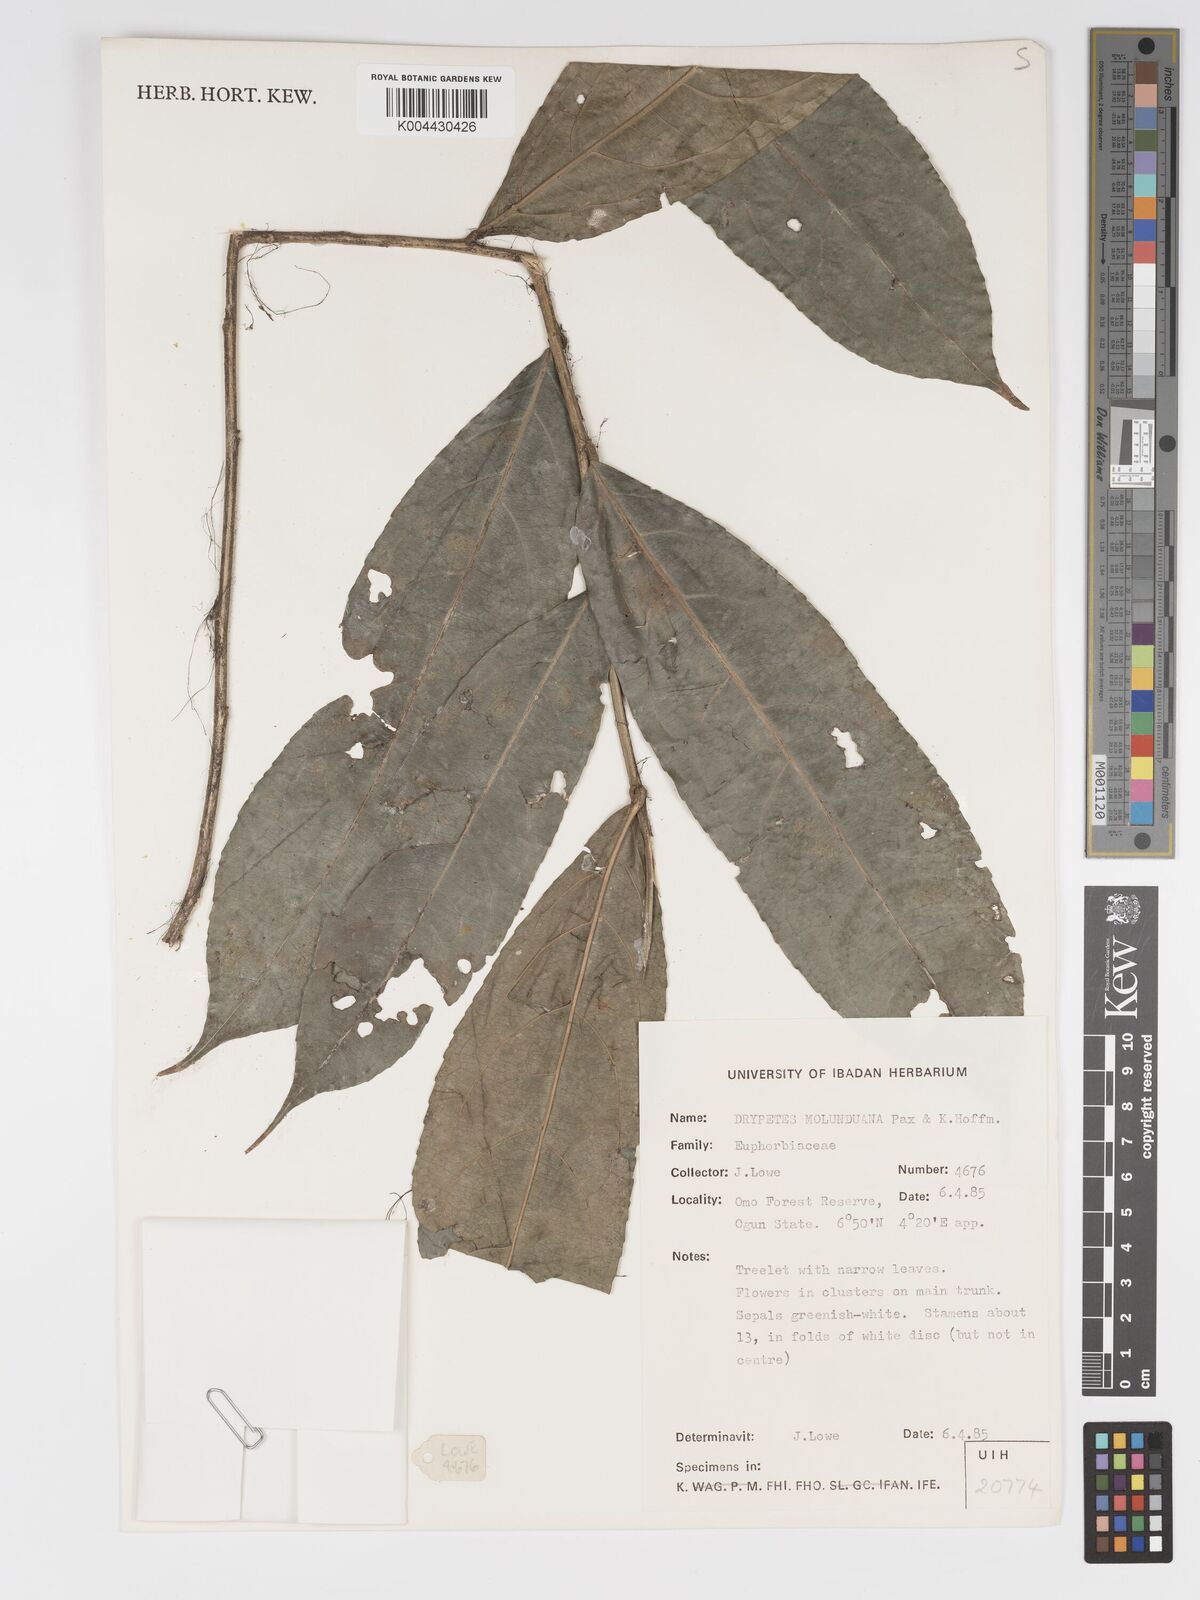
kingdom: Plantae
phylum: Tracheophyta
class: Magnoliopsida
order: Malpighiales
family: Putranjivaceae
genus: Drypetes
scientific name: Drypetes molunduana
